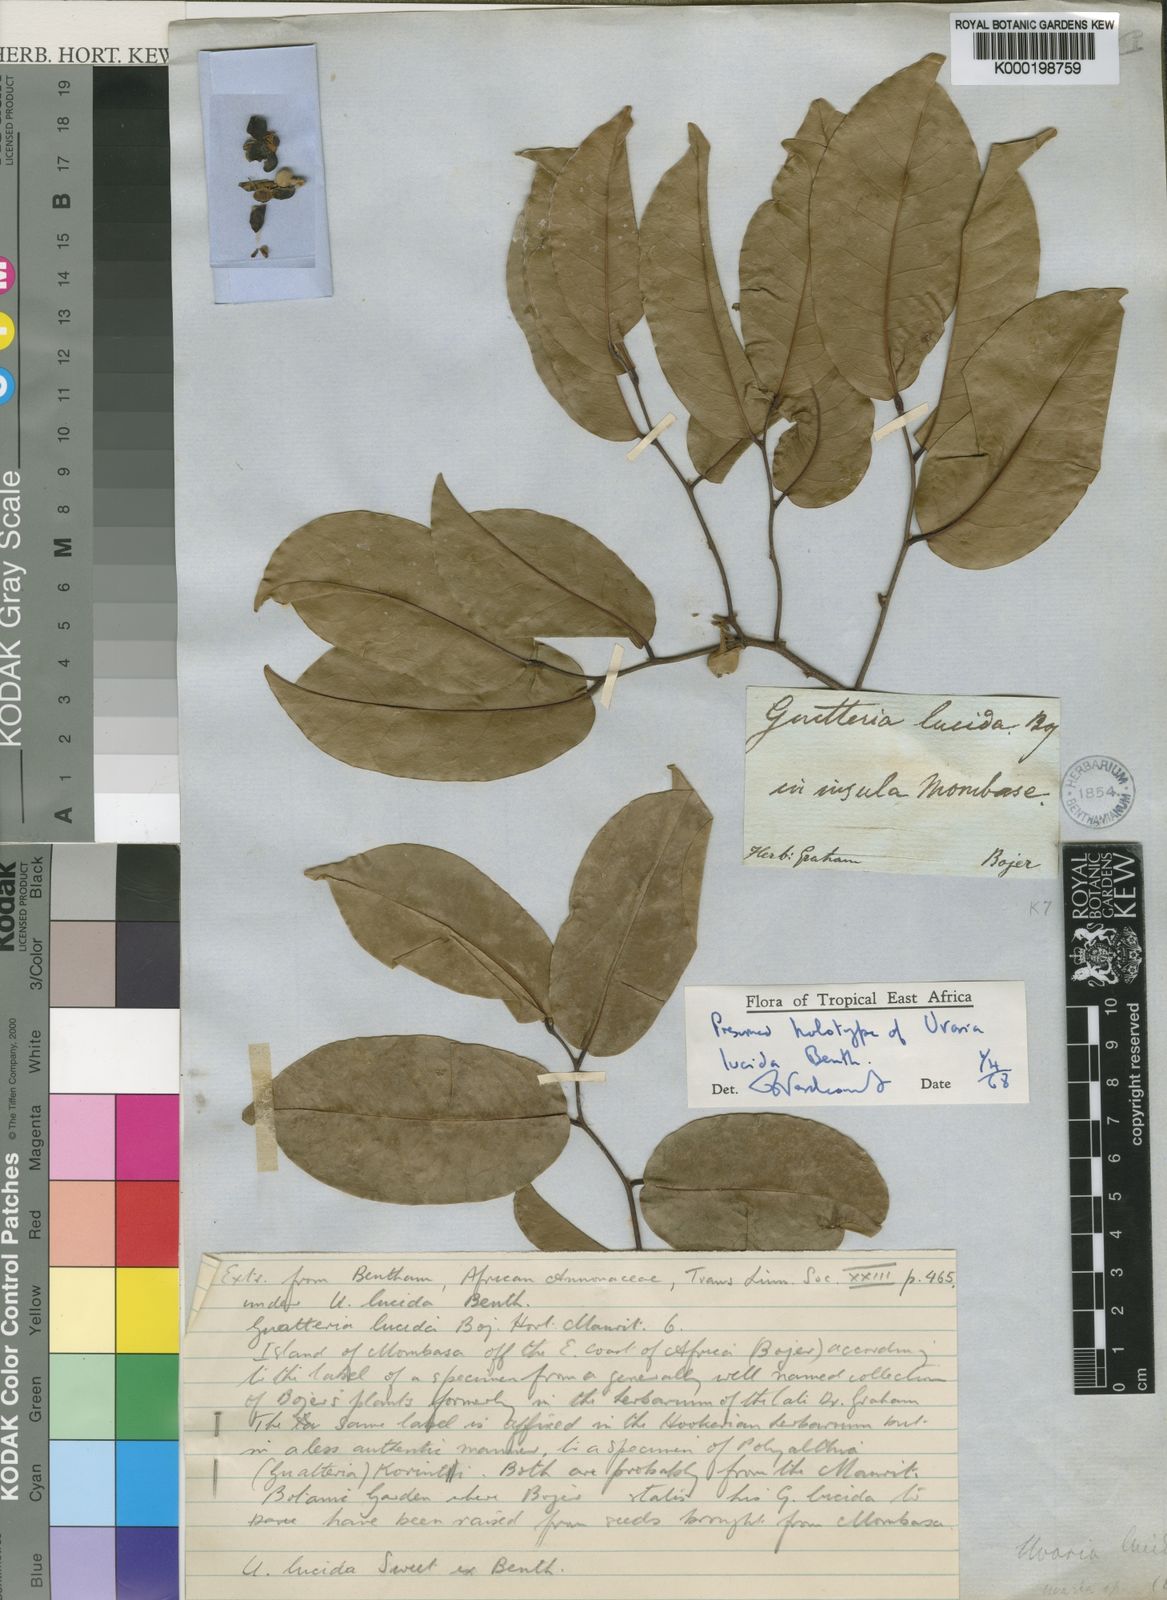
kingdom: Plantae
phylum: Tracheophyta
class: Magnoliopsida
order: Magnoliales
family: Annonaceae
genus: Uvaria
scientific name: Uvaria lucida
